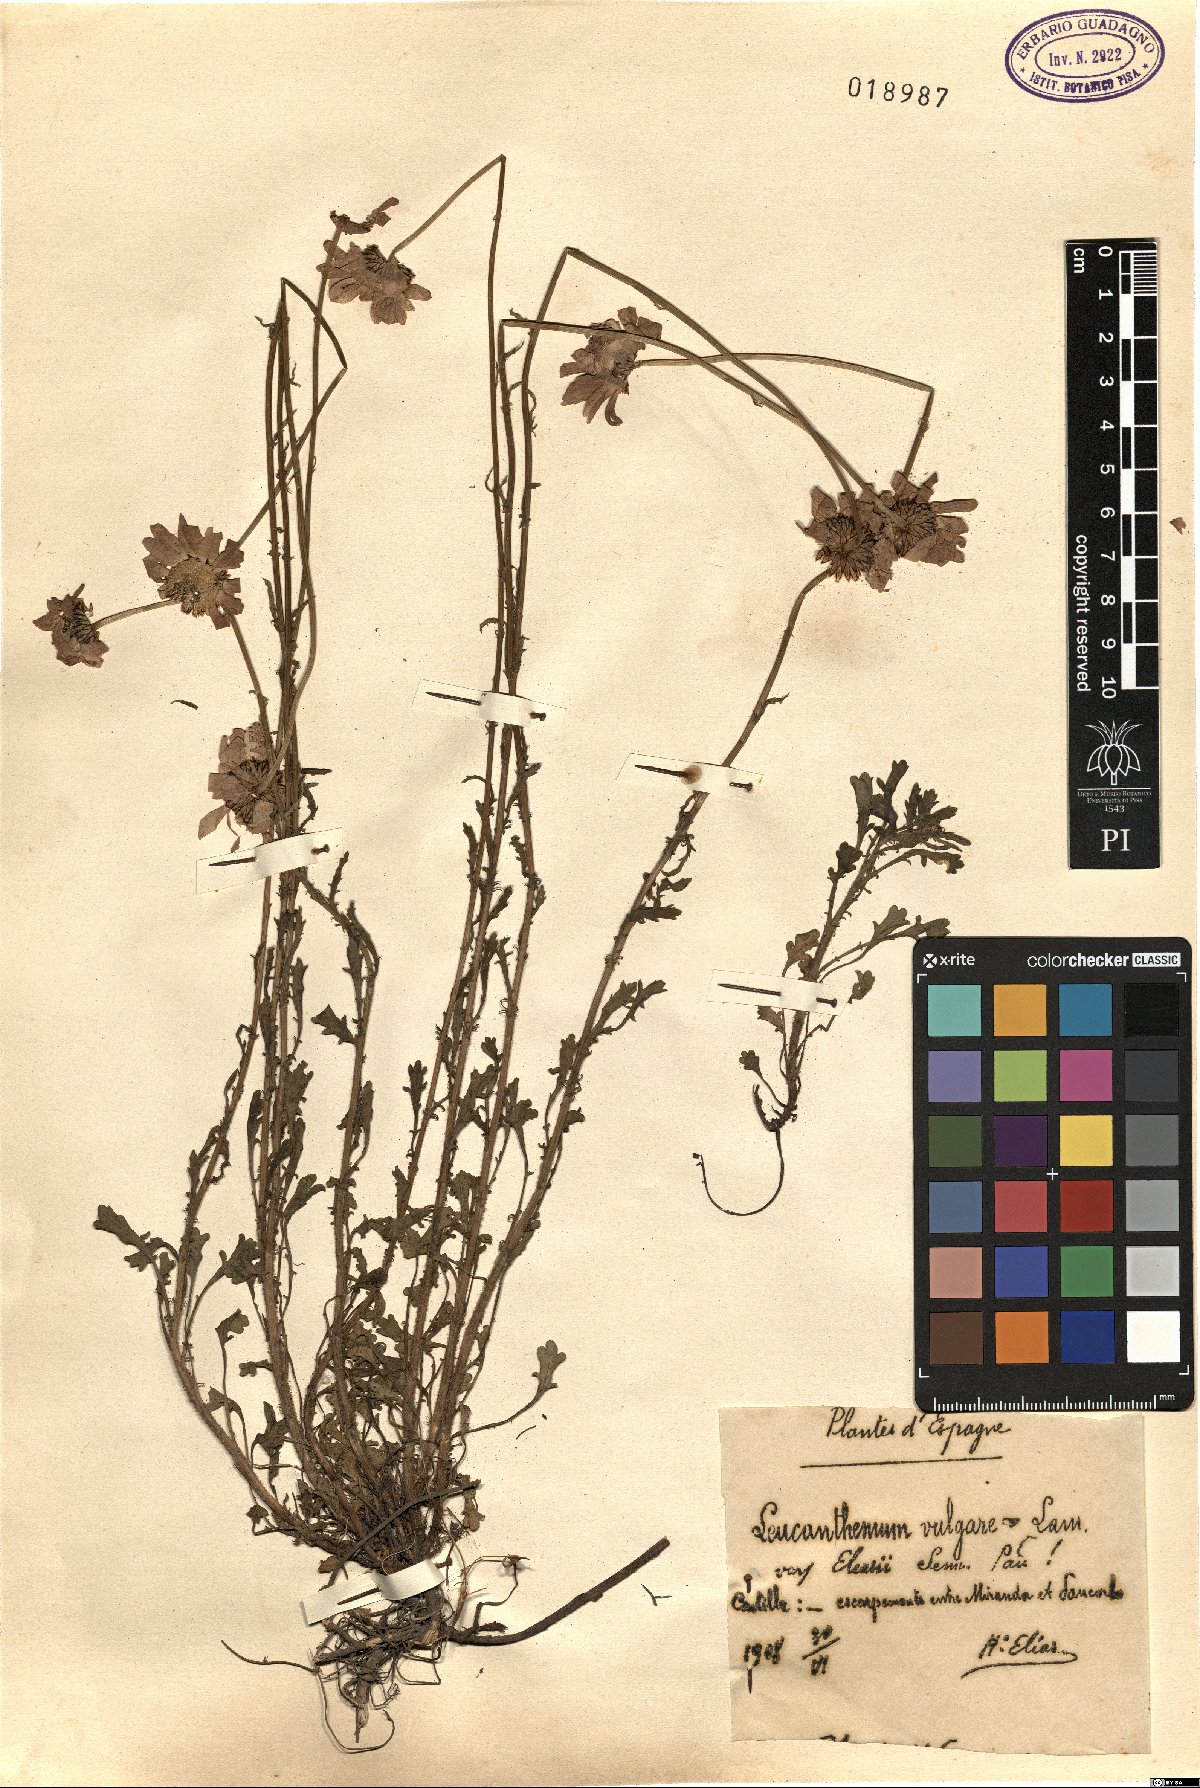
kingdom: Plantae
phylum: Tracheophyta
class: Magnoliopsida
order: Asterales
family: Asteraceae
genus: Leucanthemum
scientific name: Leucanthemum eliasii
